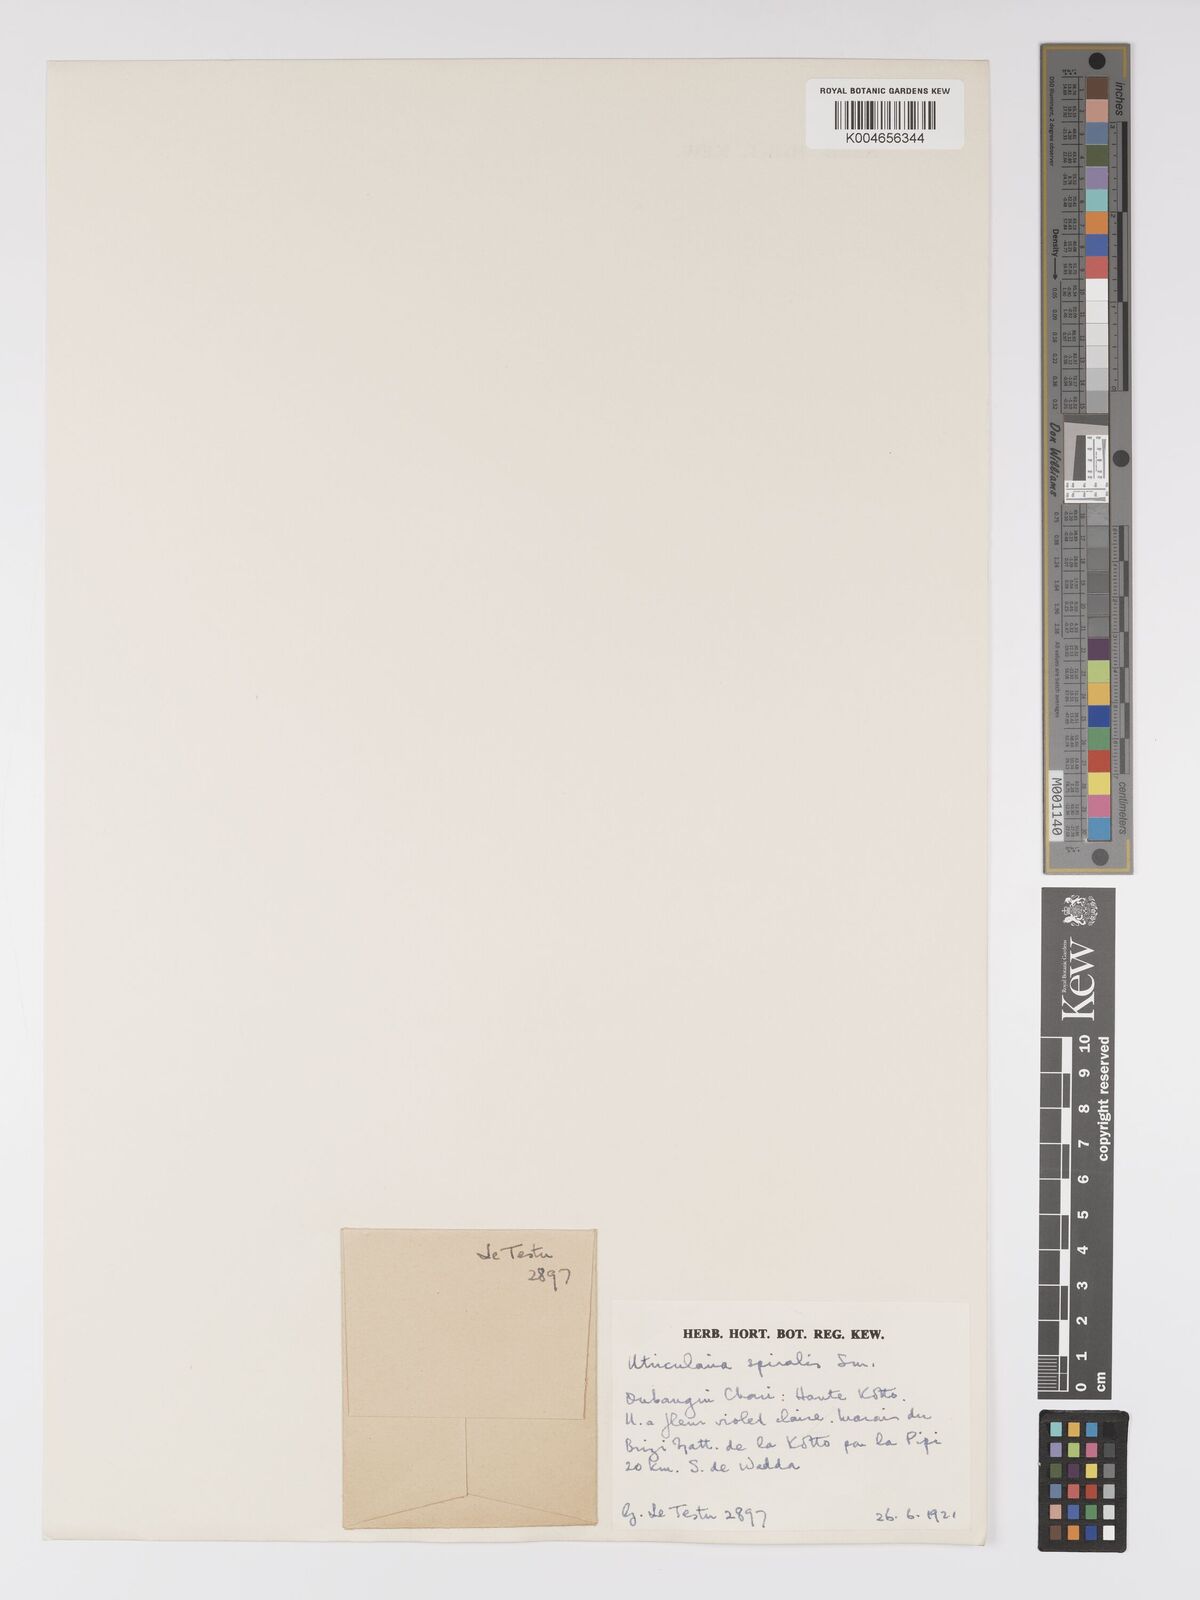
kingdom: Plantae
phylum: Tracheophyta
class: Magnoliopsida
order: Lamiales
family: Lentibulariaceae
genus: Utricularia
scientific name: Utricularia spiralis
